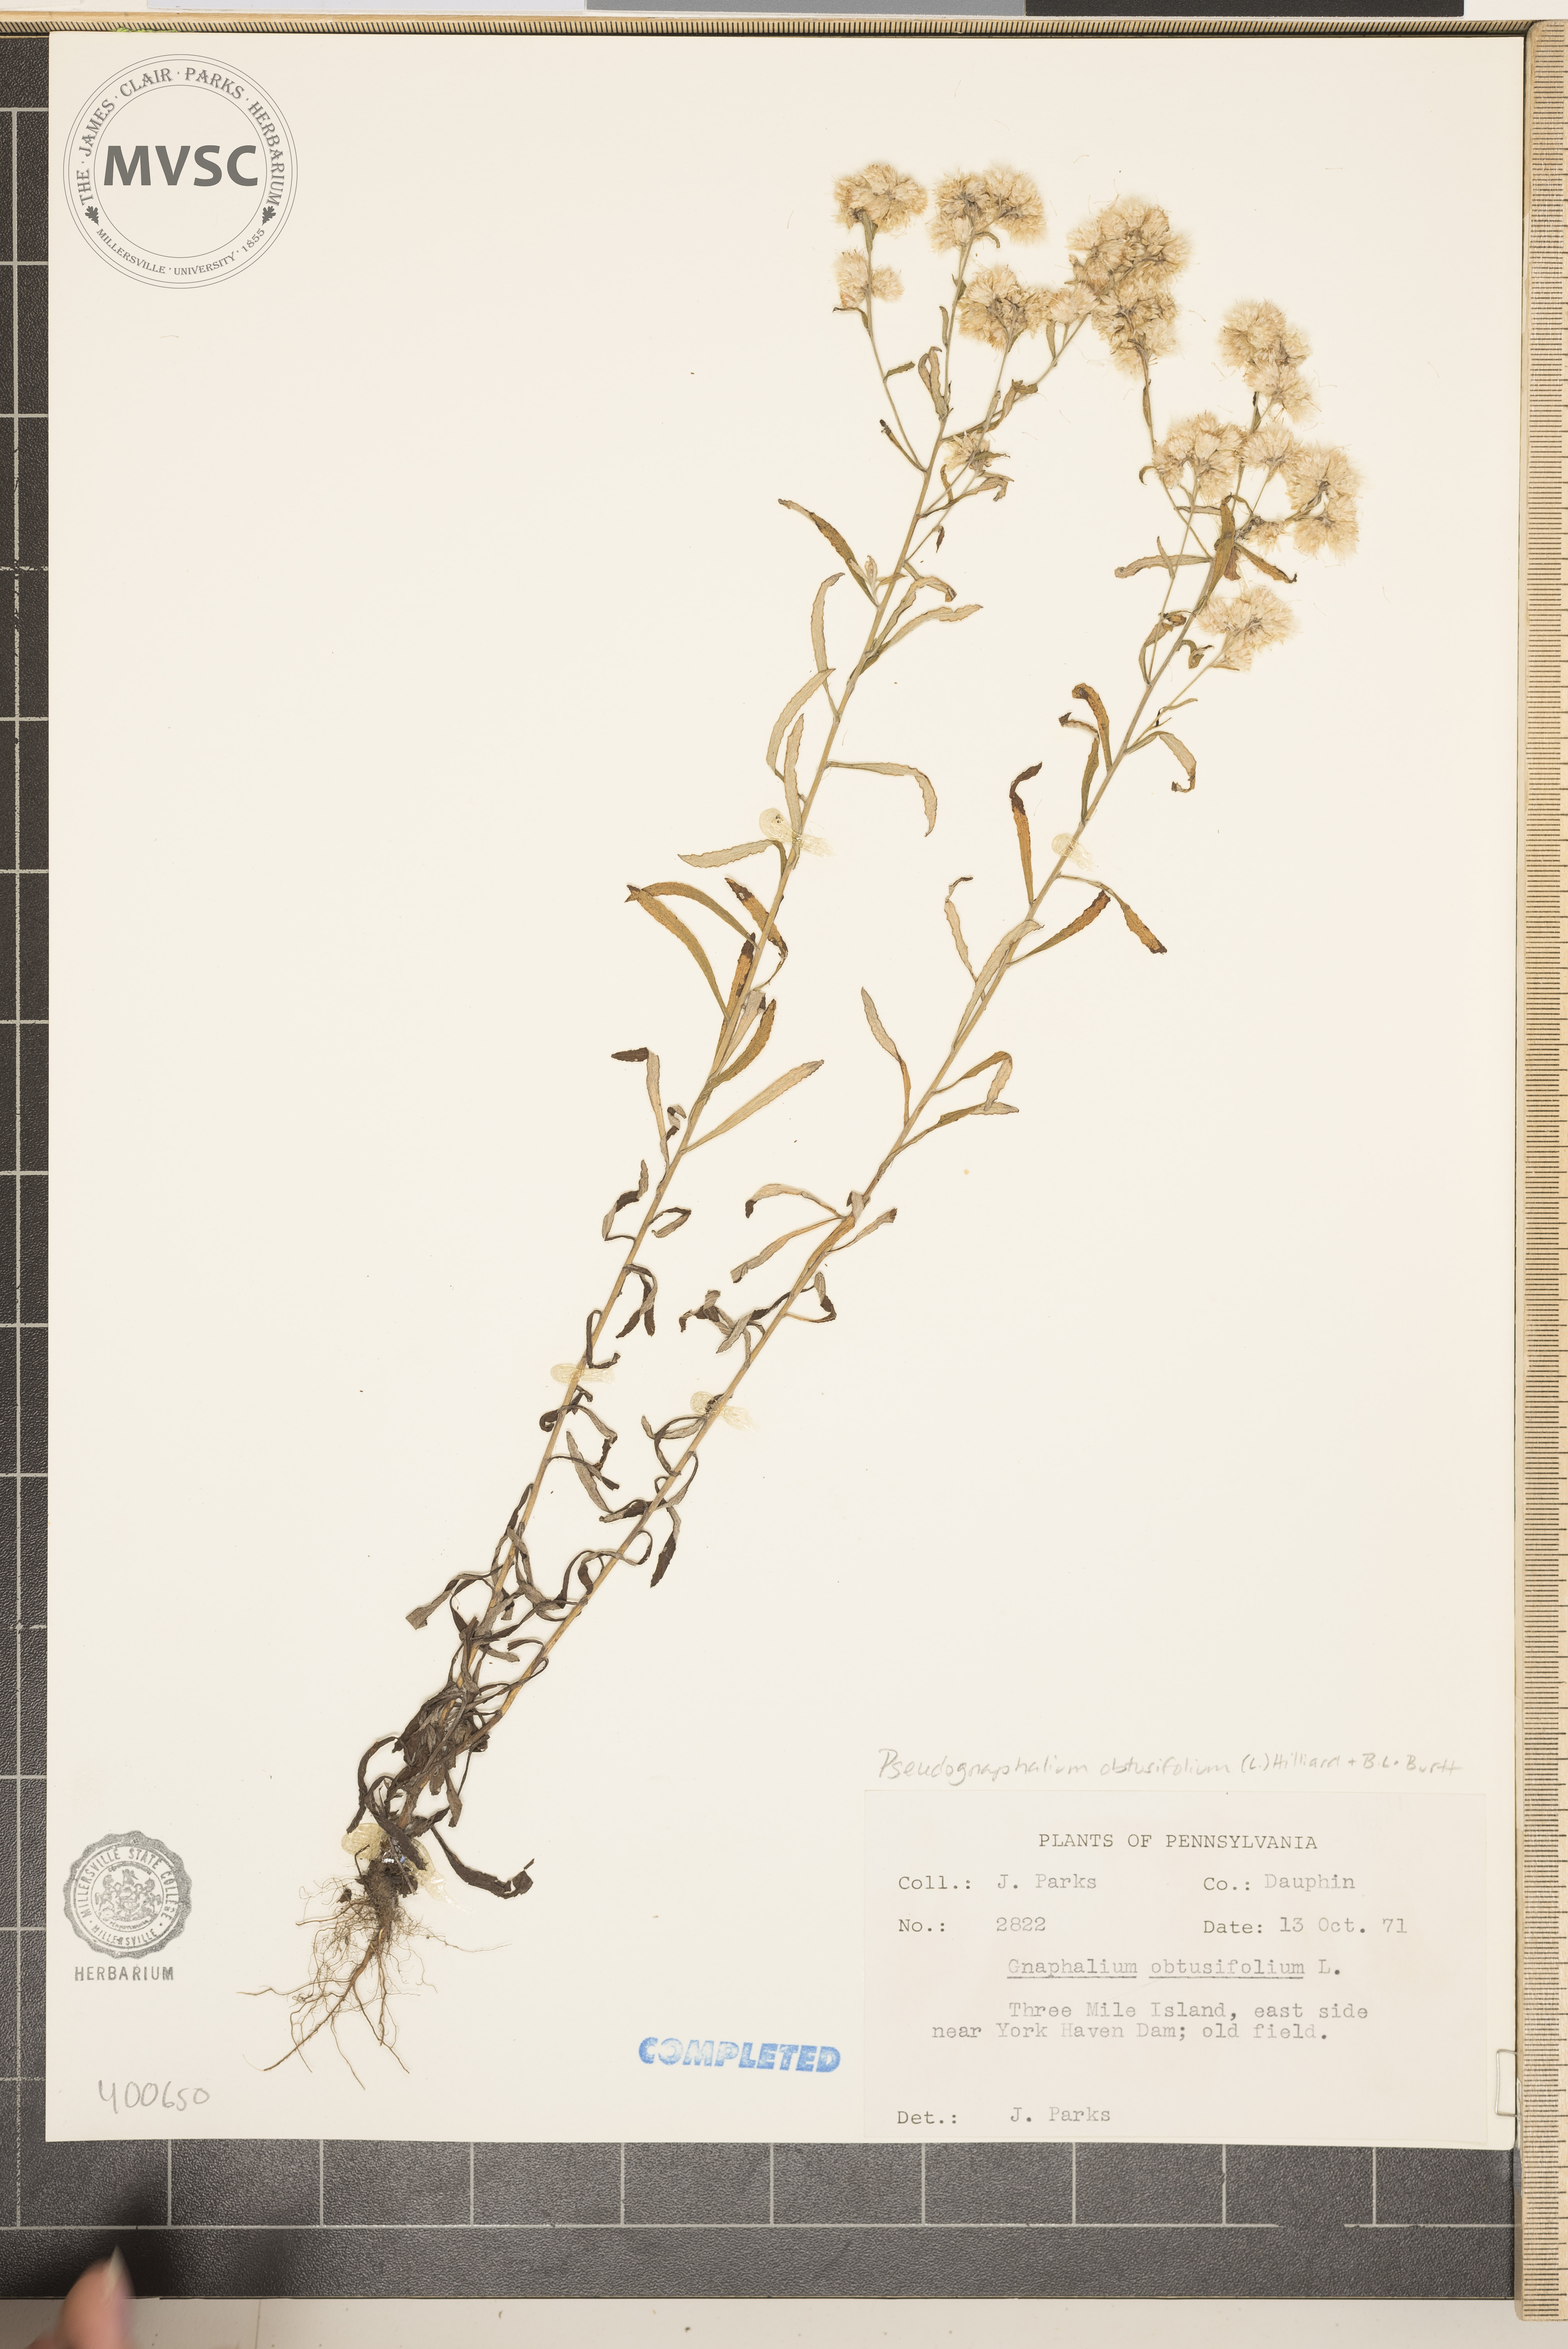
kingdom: Plantae
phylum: Tracheophyta
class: Magnoliopsida
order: Asterales
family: Asteraceae
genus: Pseudognaphalium
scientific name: Pseudognaphalium obtusifolium
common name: Fragrant cudweed
